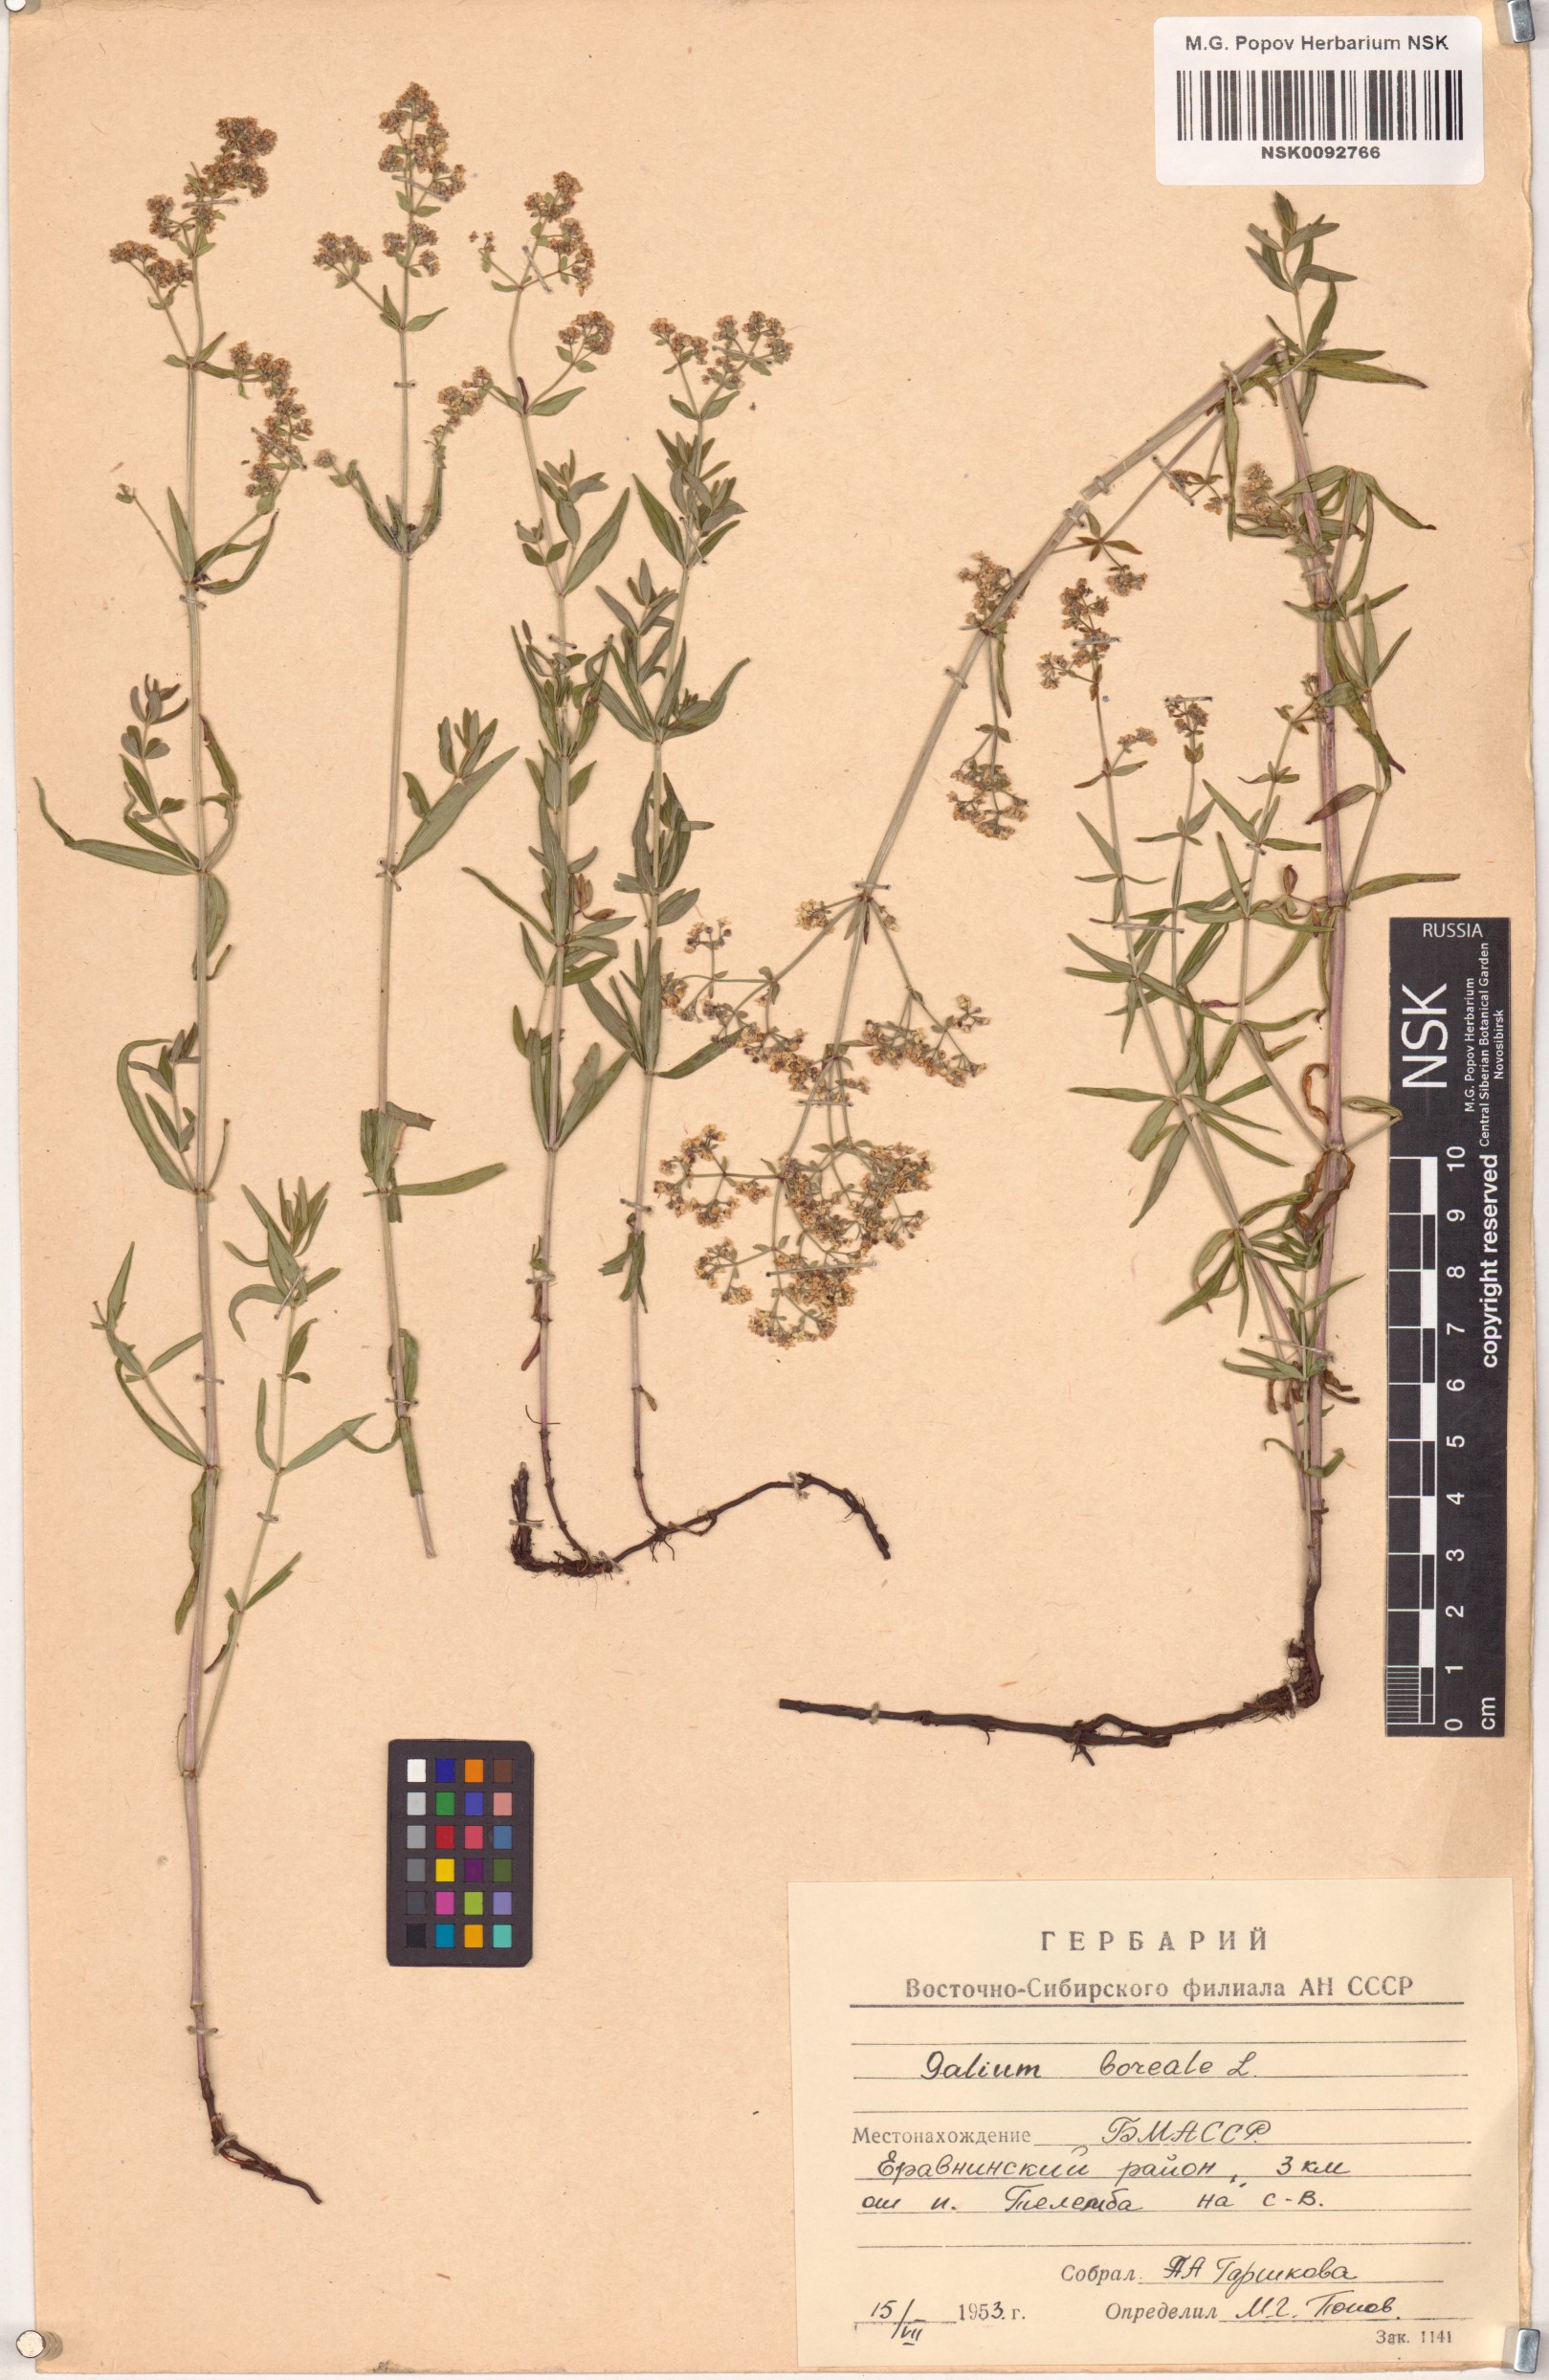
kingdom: Plantae
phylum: Tracheophyta
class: Magnoliopsida
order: Gentianales
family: Rubiaceae
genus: Galium
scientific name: Galium boreale
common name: Northern bedstraw
